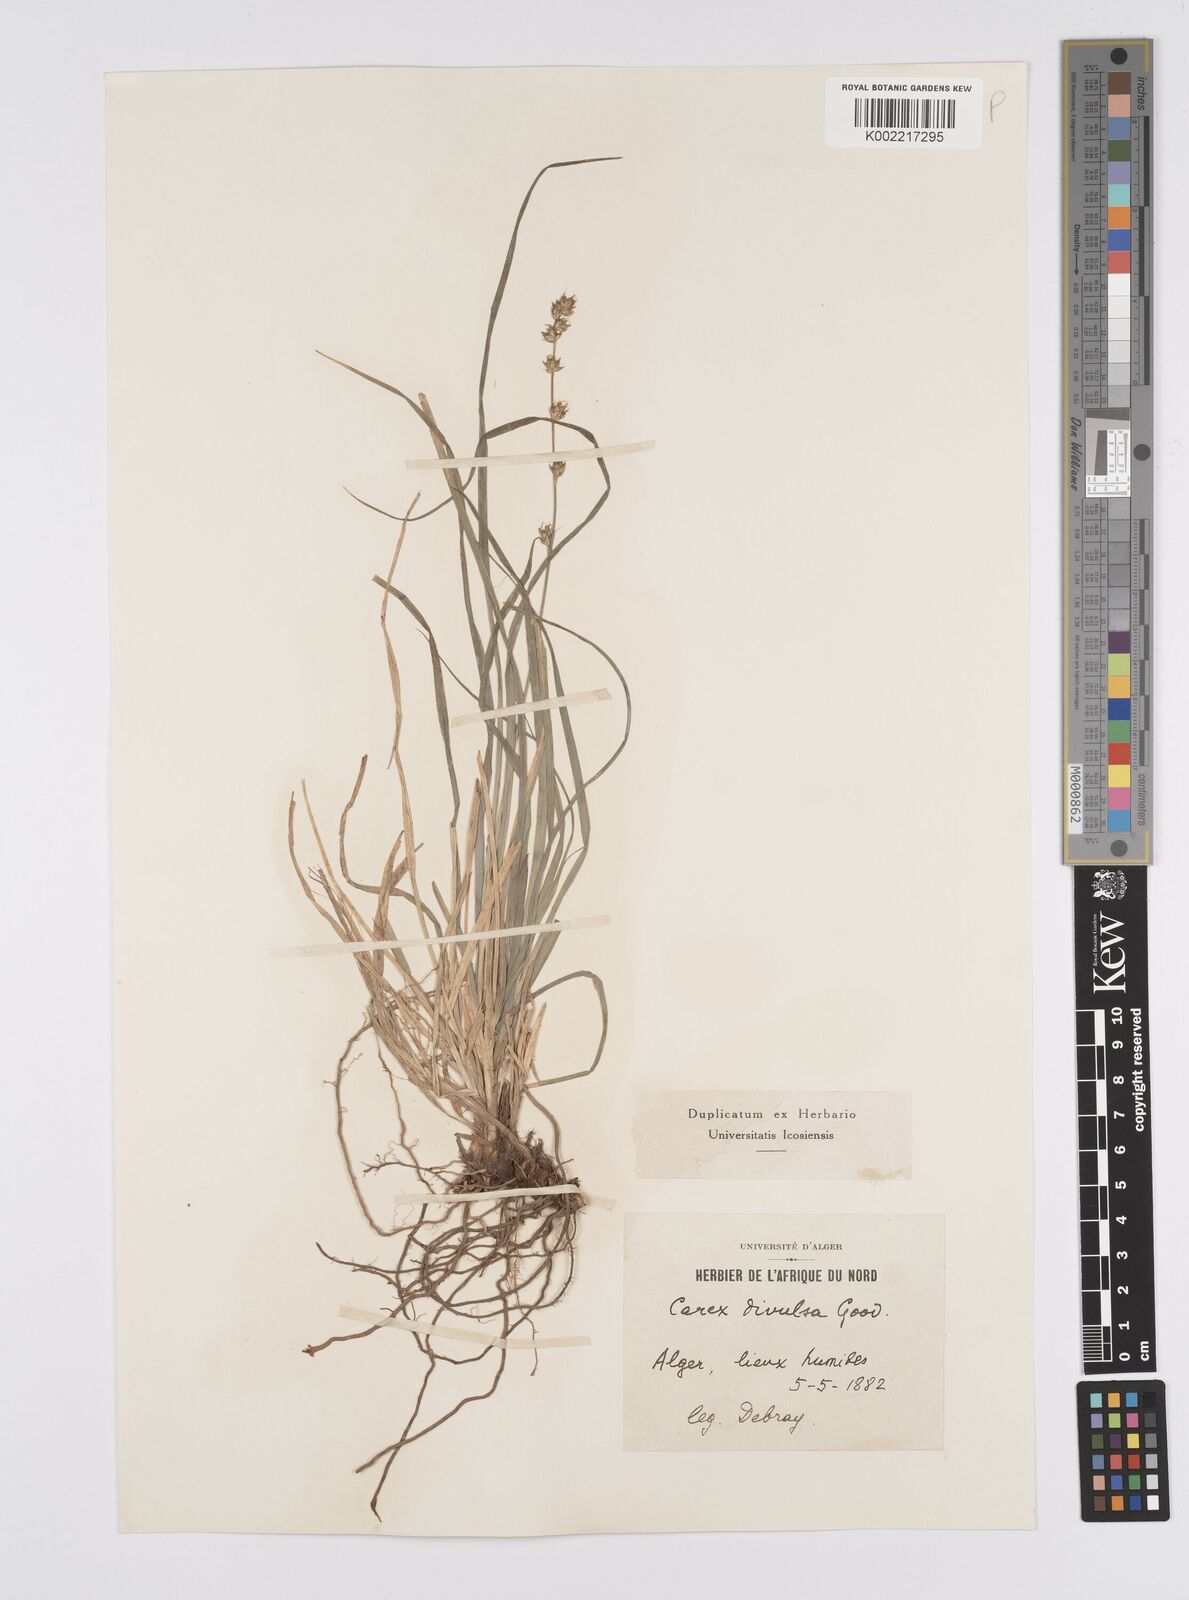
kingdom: Plantae
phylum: Tracheophyta
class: Liliopsida
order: Poales
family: Cyperaceae
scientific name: Cyperaceae
